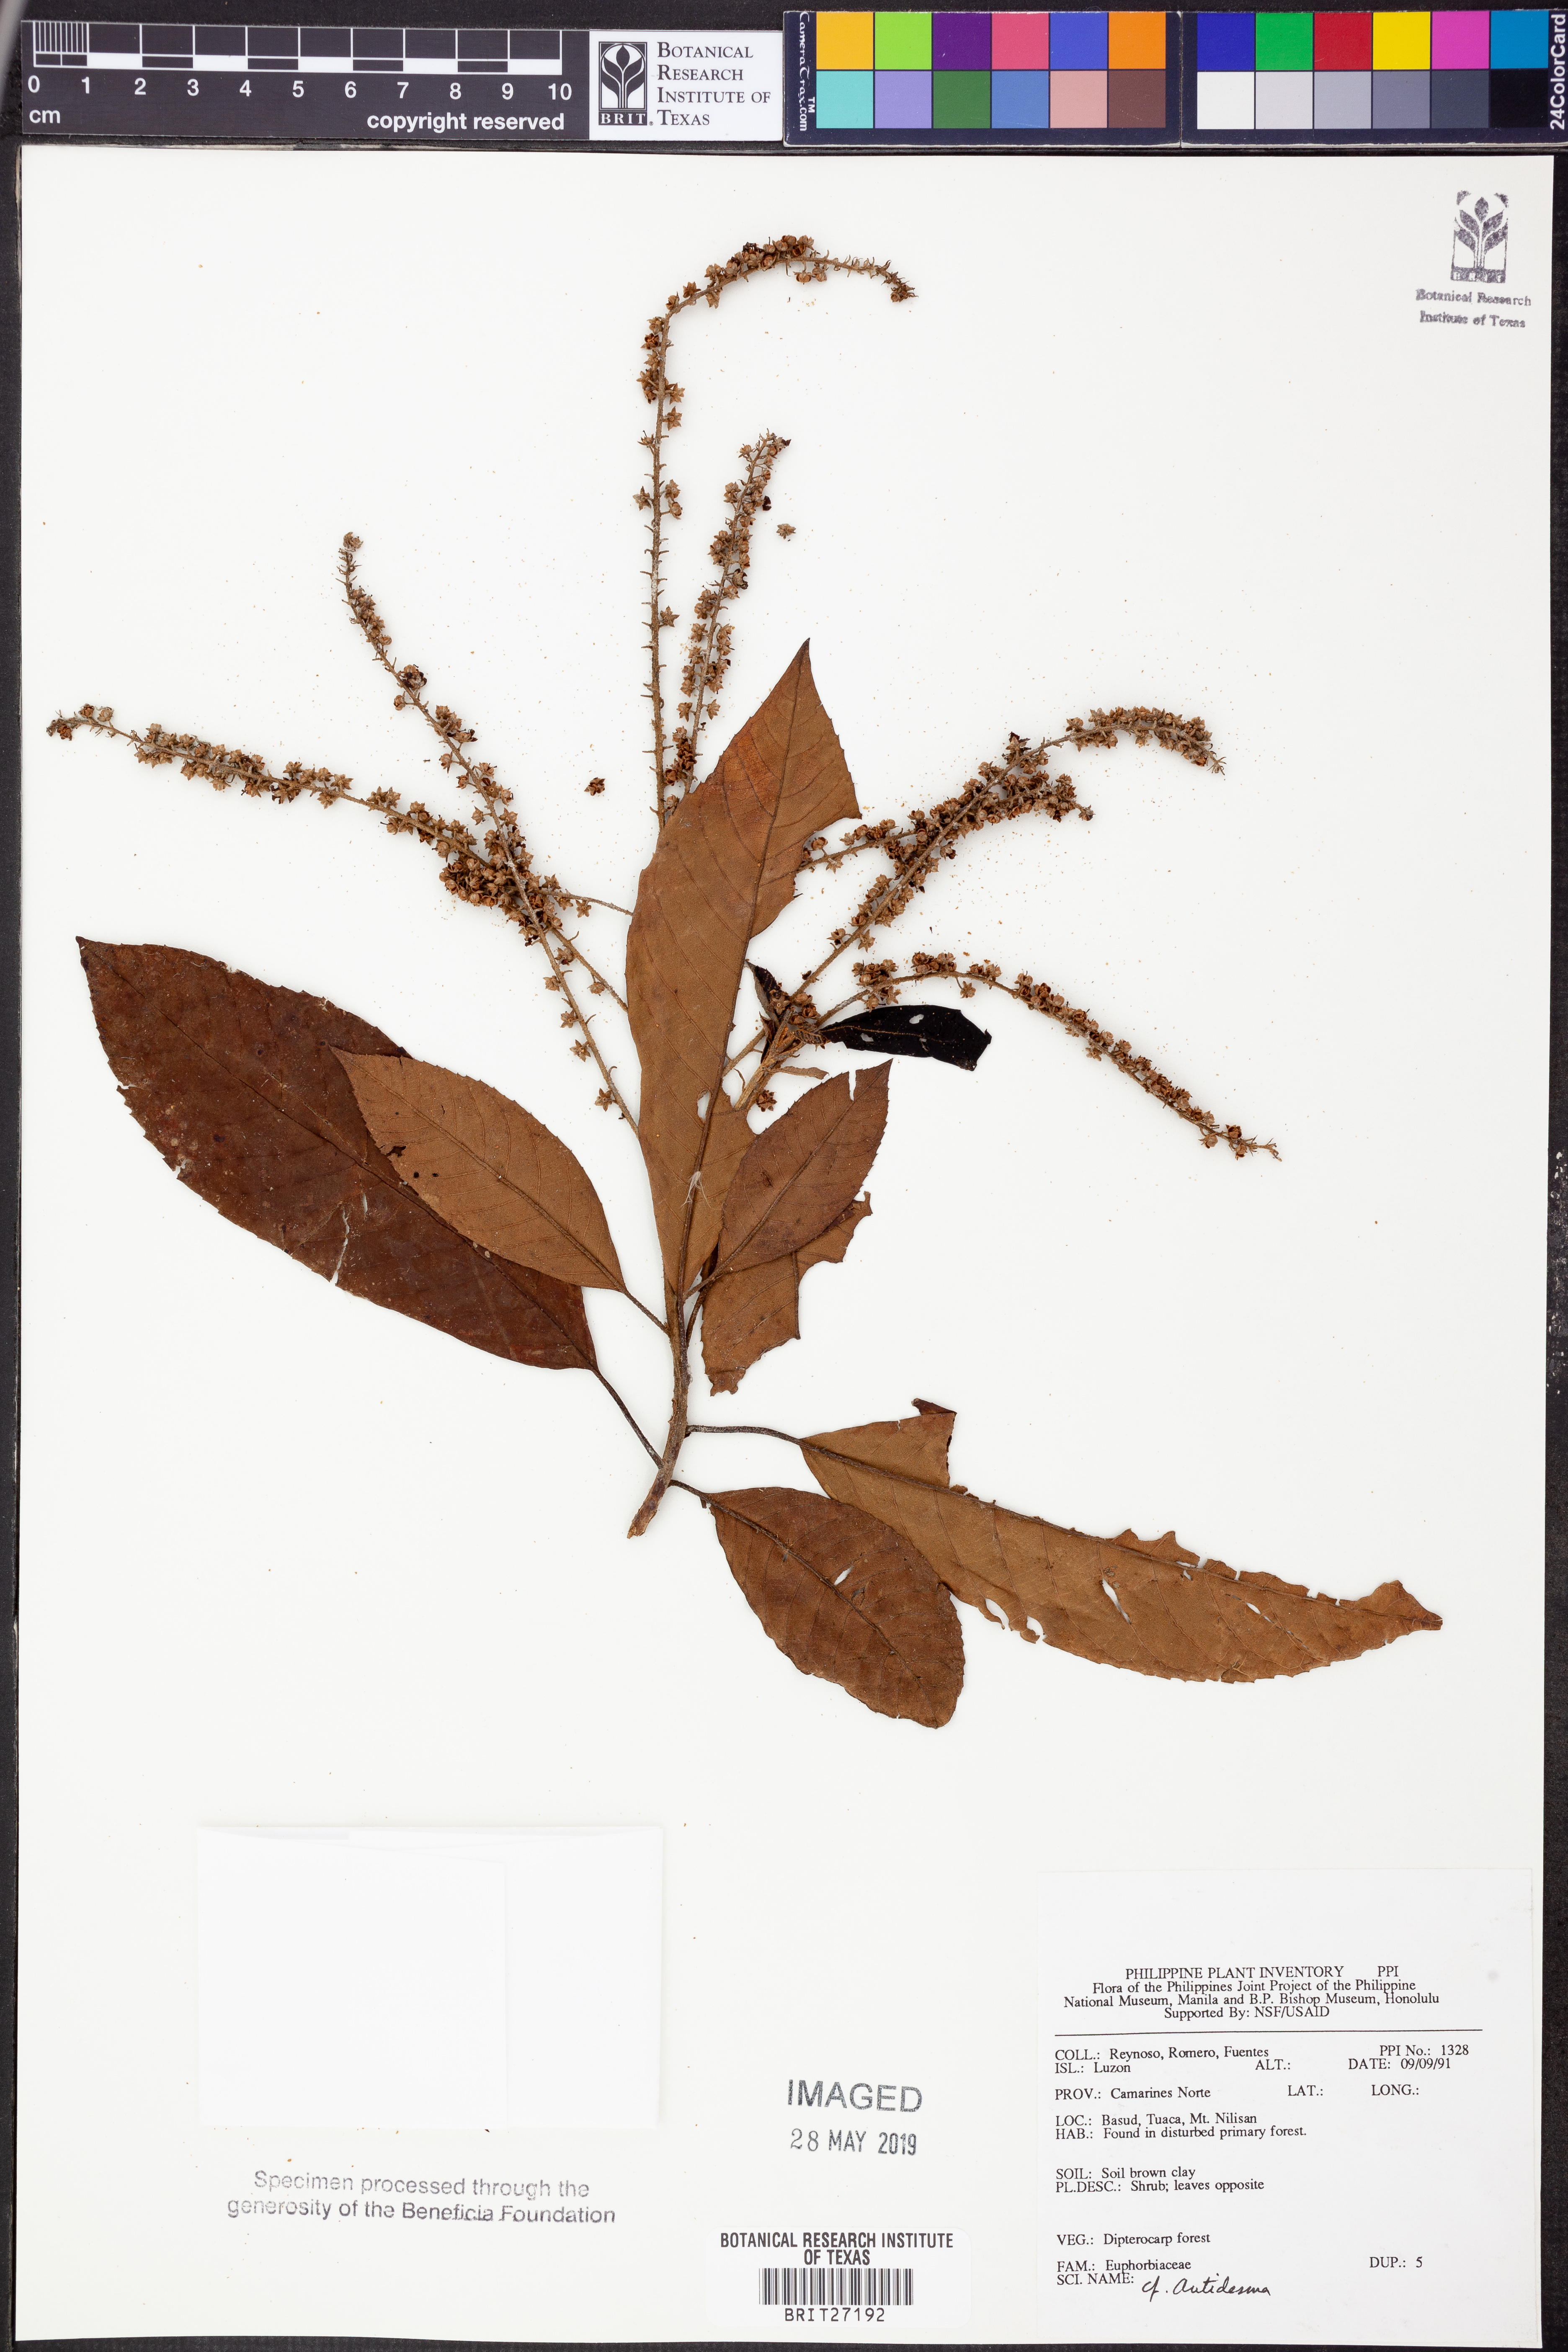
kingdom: Plantae
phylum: Tracheophyta
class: Magnoliopsida
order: Malpighiales
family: Phyllanthaceae
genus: Antidesma
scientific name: Antidesma
